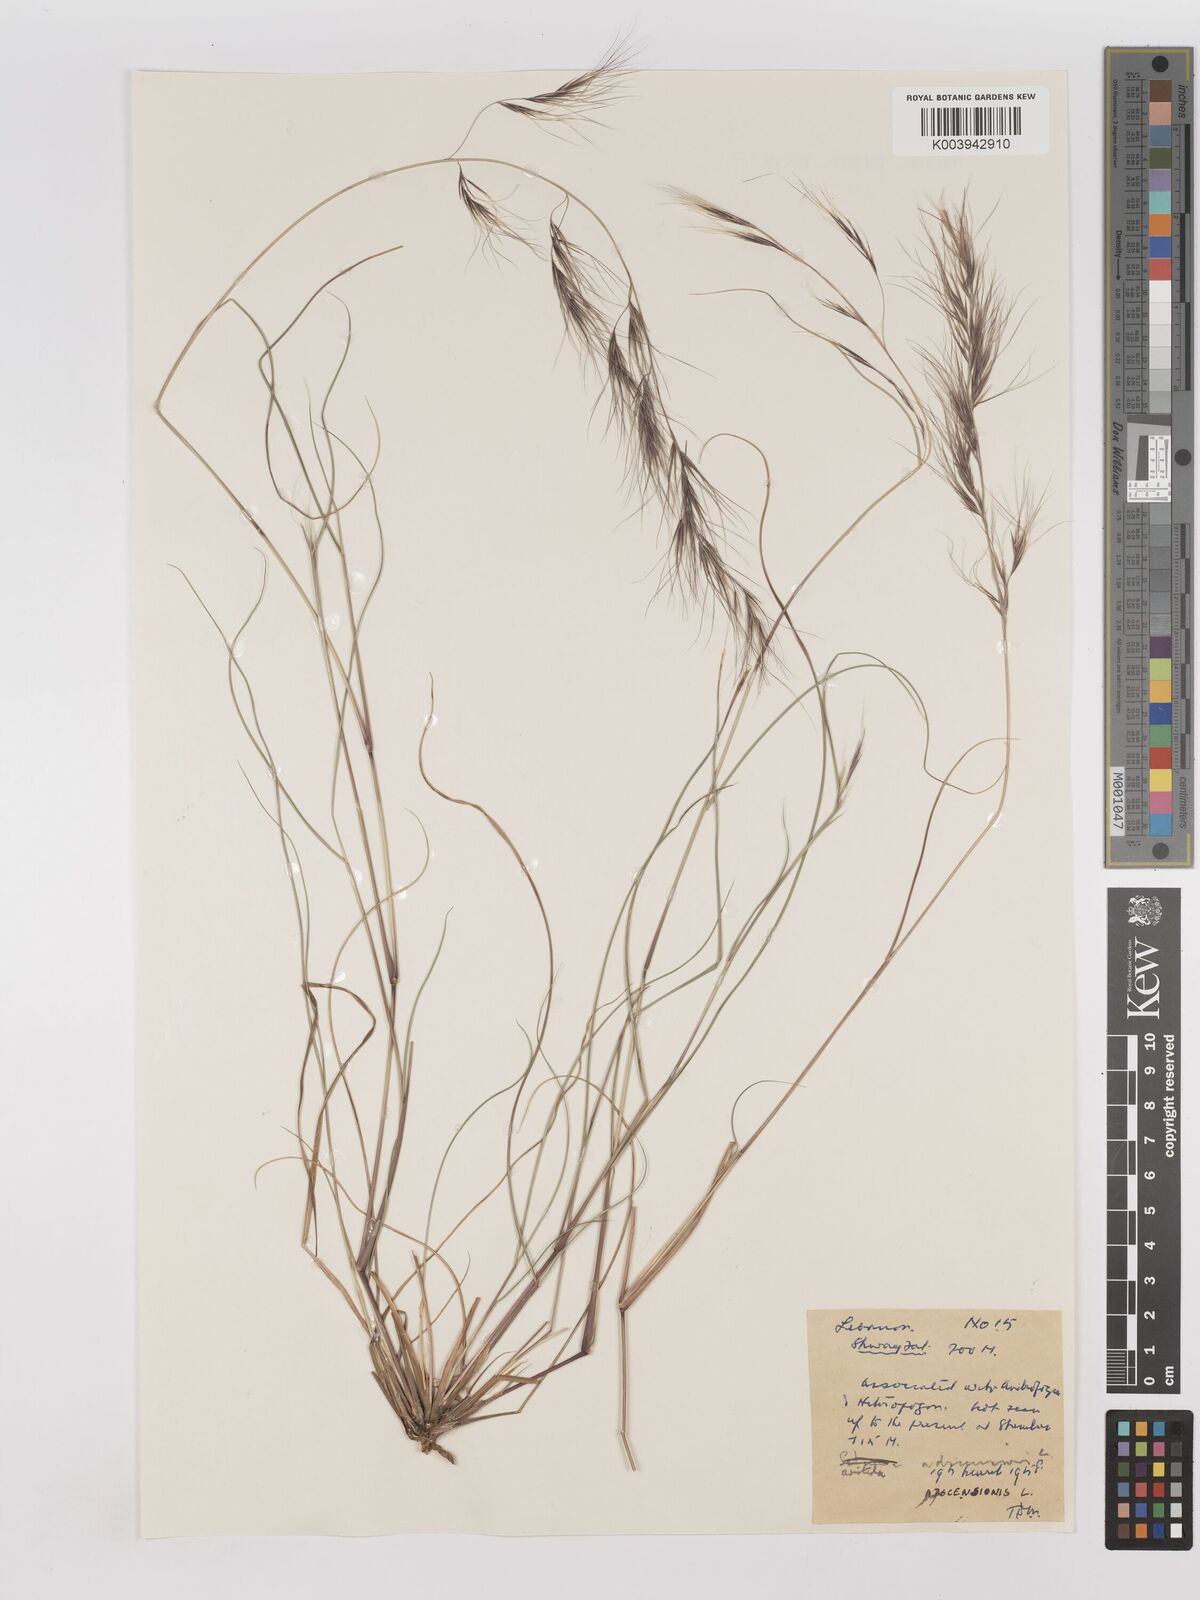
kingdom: Plantae
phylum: Tracheophyta
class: Liliopsida
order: Poales
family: Poaceae
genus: Aristida
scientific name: Aristida adscensionis
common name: Sixweeks threeawn
